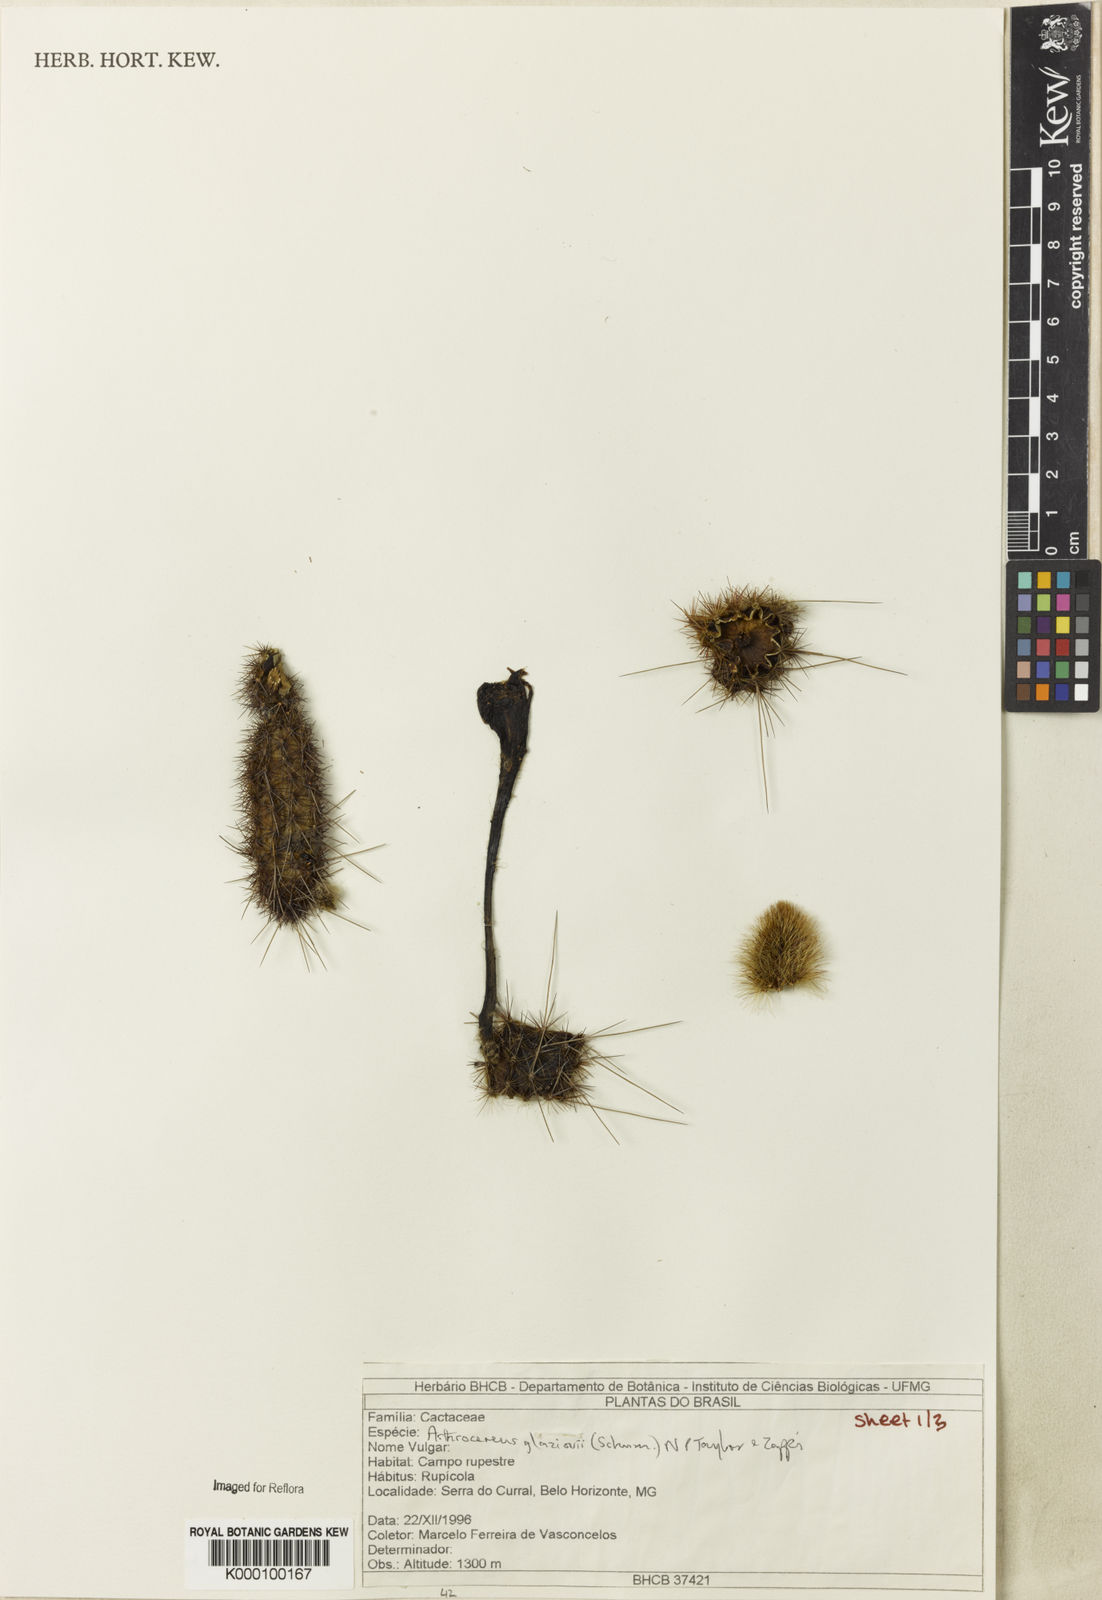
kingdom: Plantae
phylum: Tracheophyta
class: Magnoliopsida
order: Caryophyllales
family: Cactaceae
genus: Arthrocereus
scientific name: Arthrocereus glaziovii
